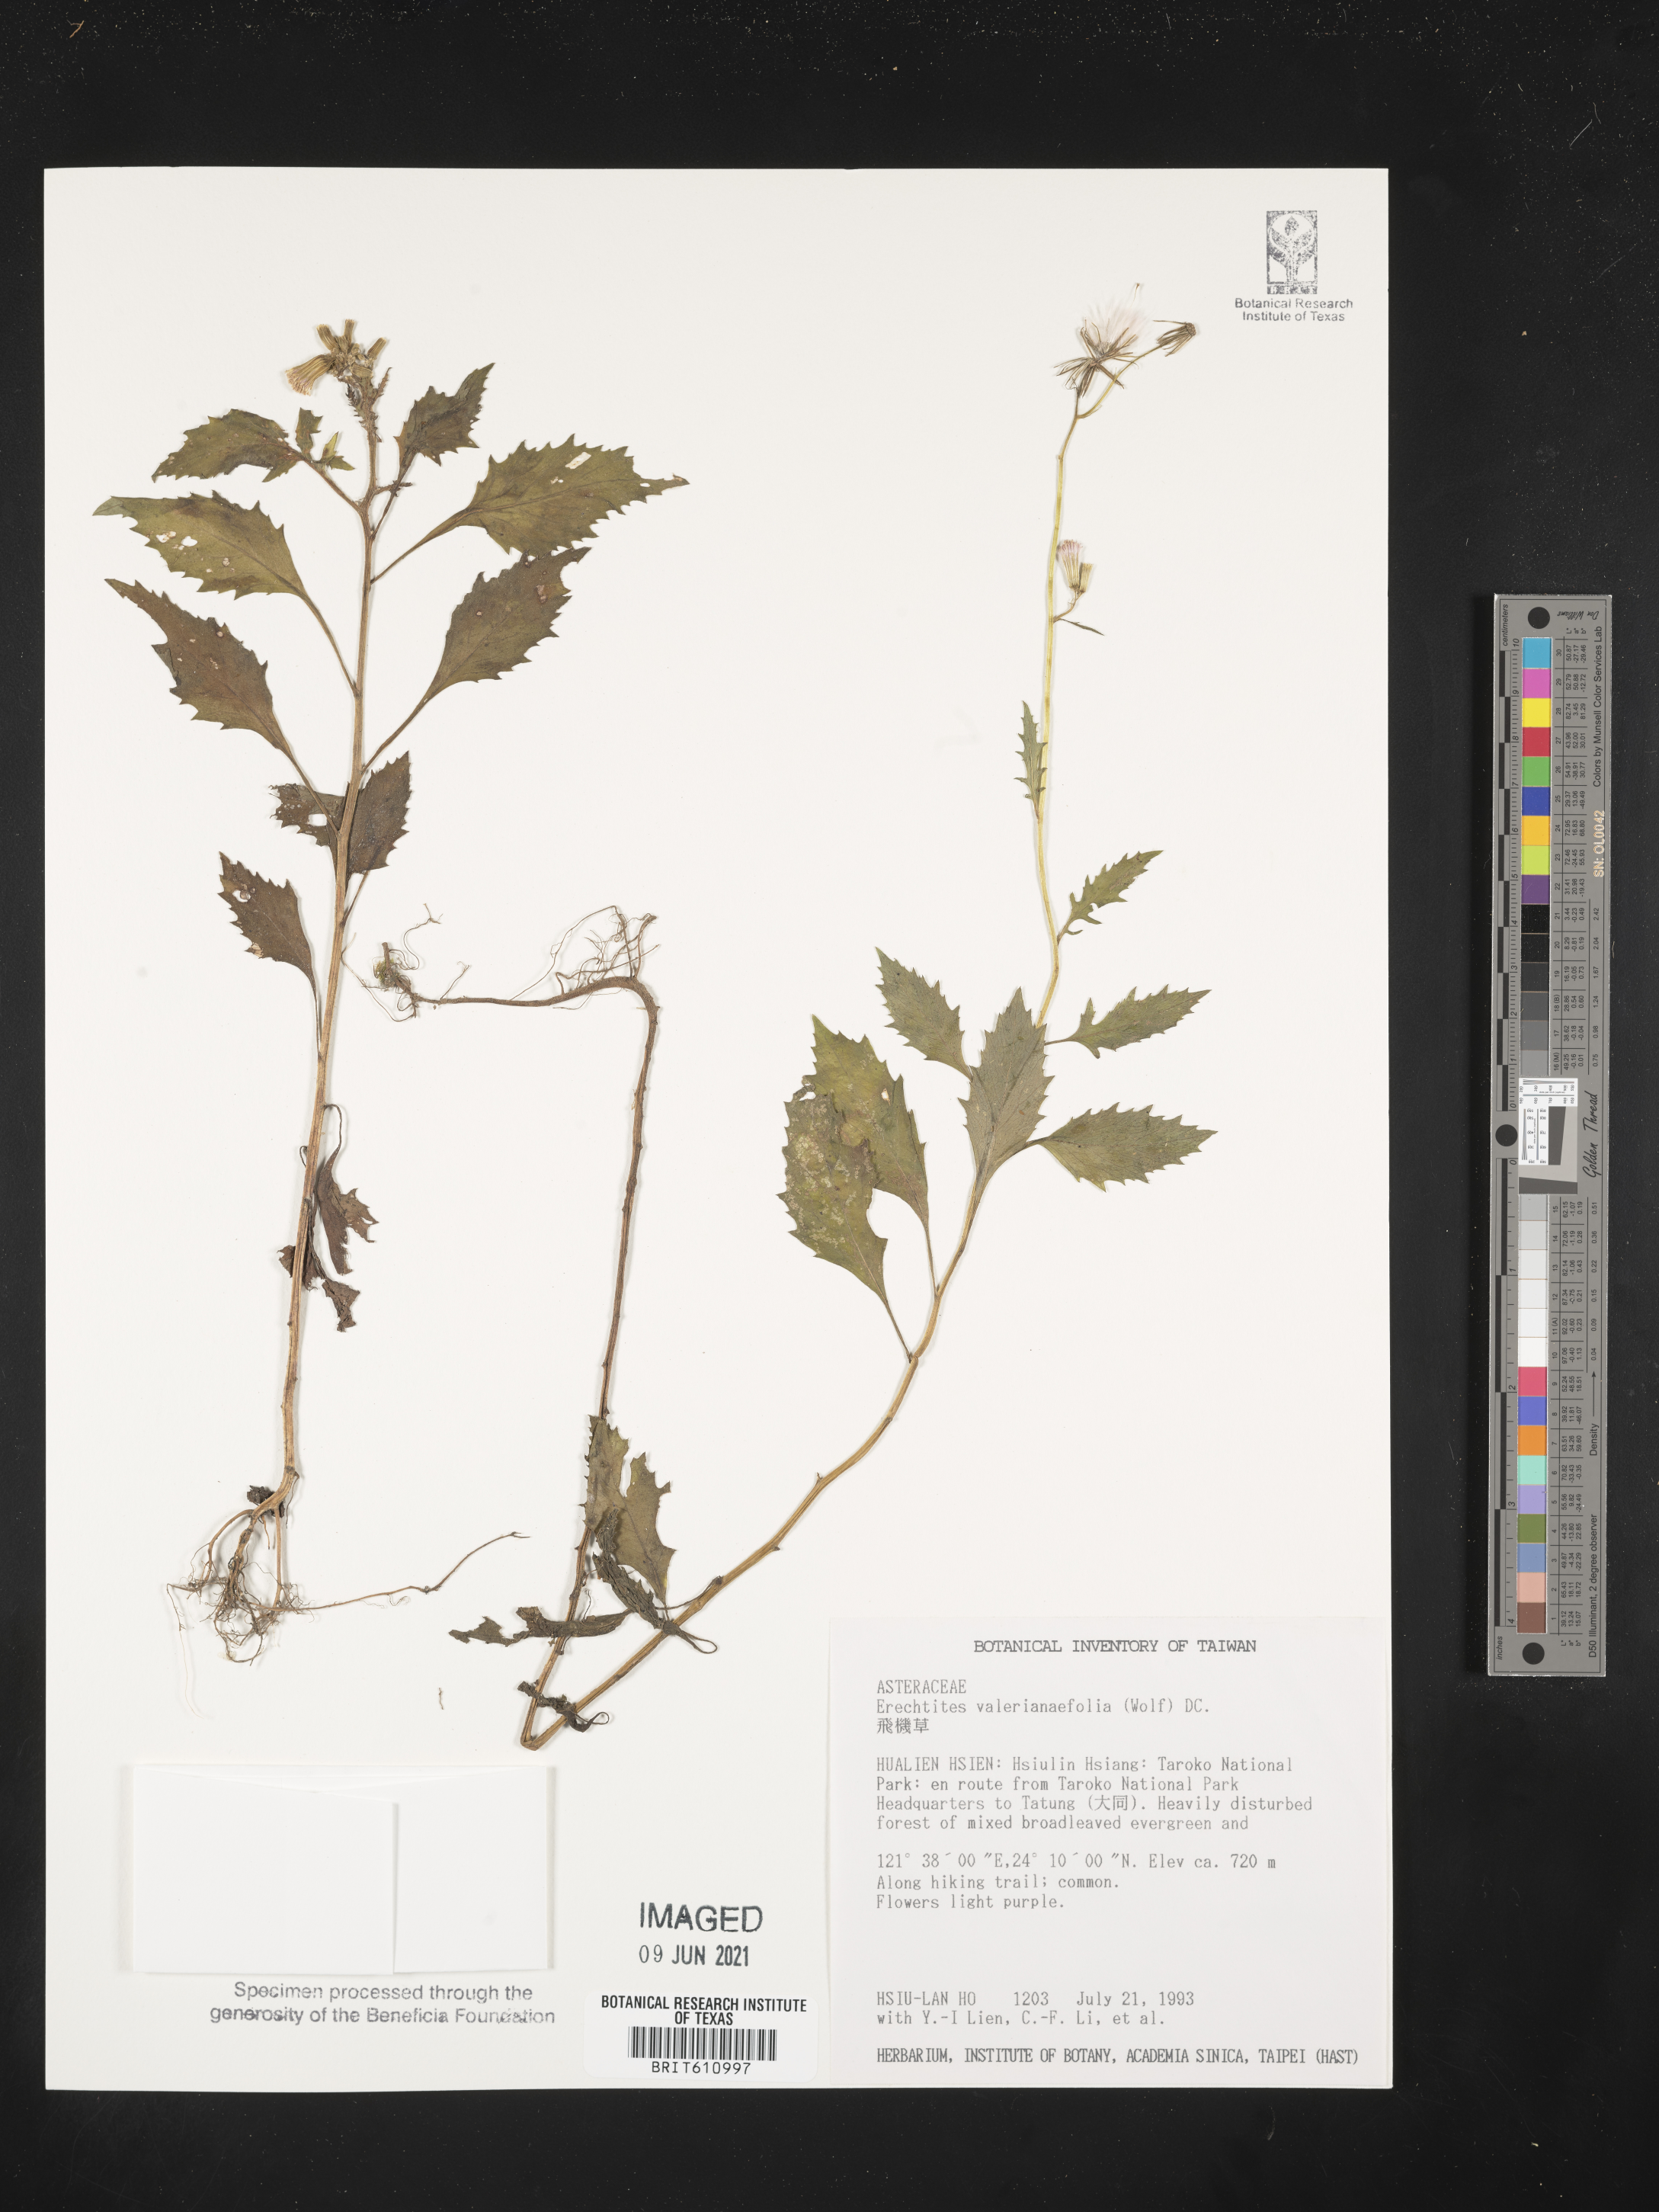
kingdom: Plantae
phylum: Tracheophyta
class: Magnoliopsida
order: Asterales
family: Asteraceae
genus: Erechtites
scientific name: Erechtites valerianifolius
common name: Tropical burnweed
